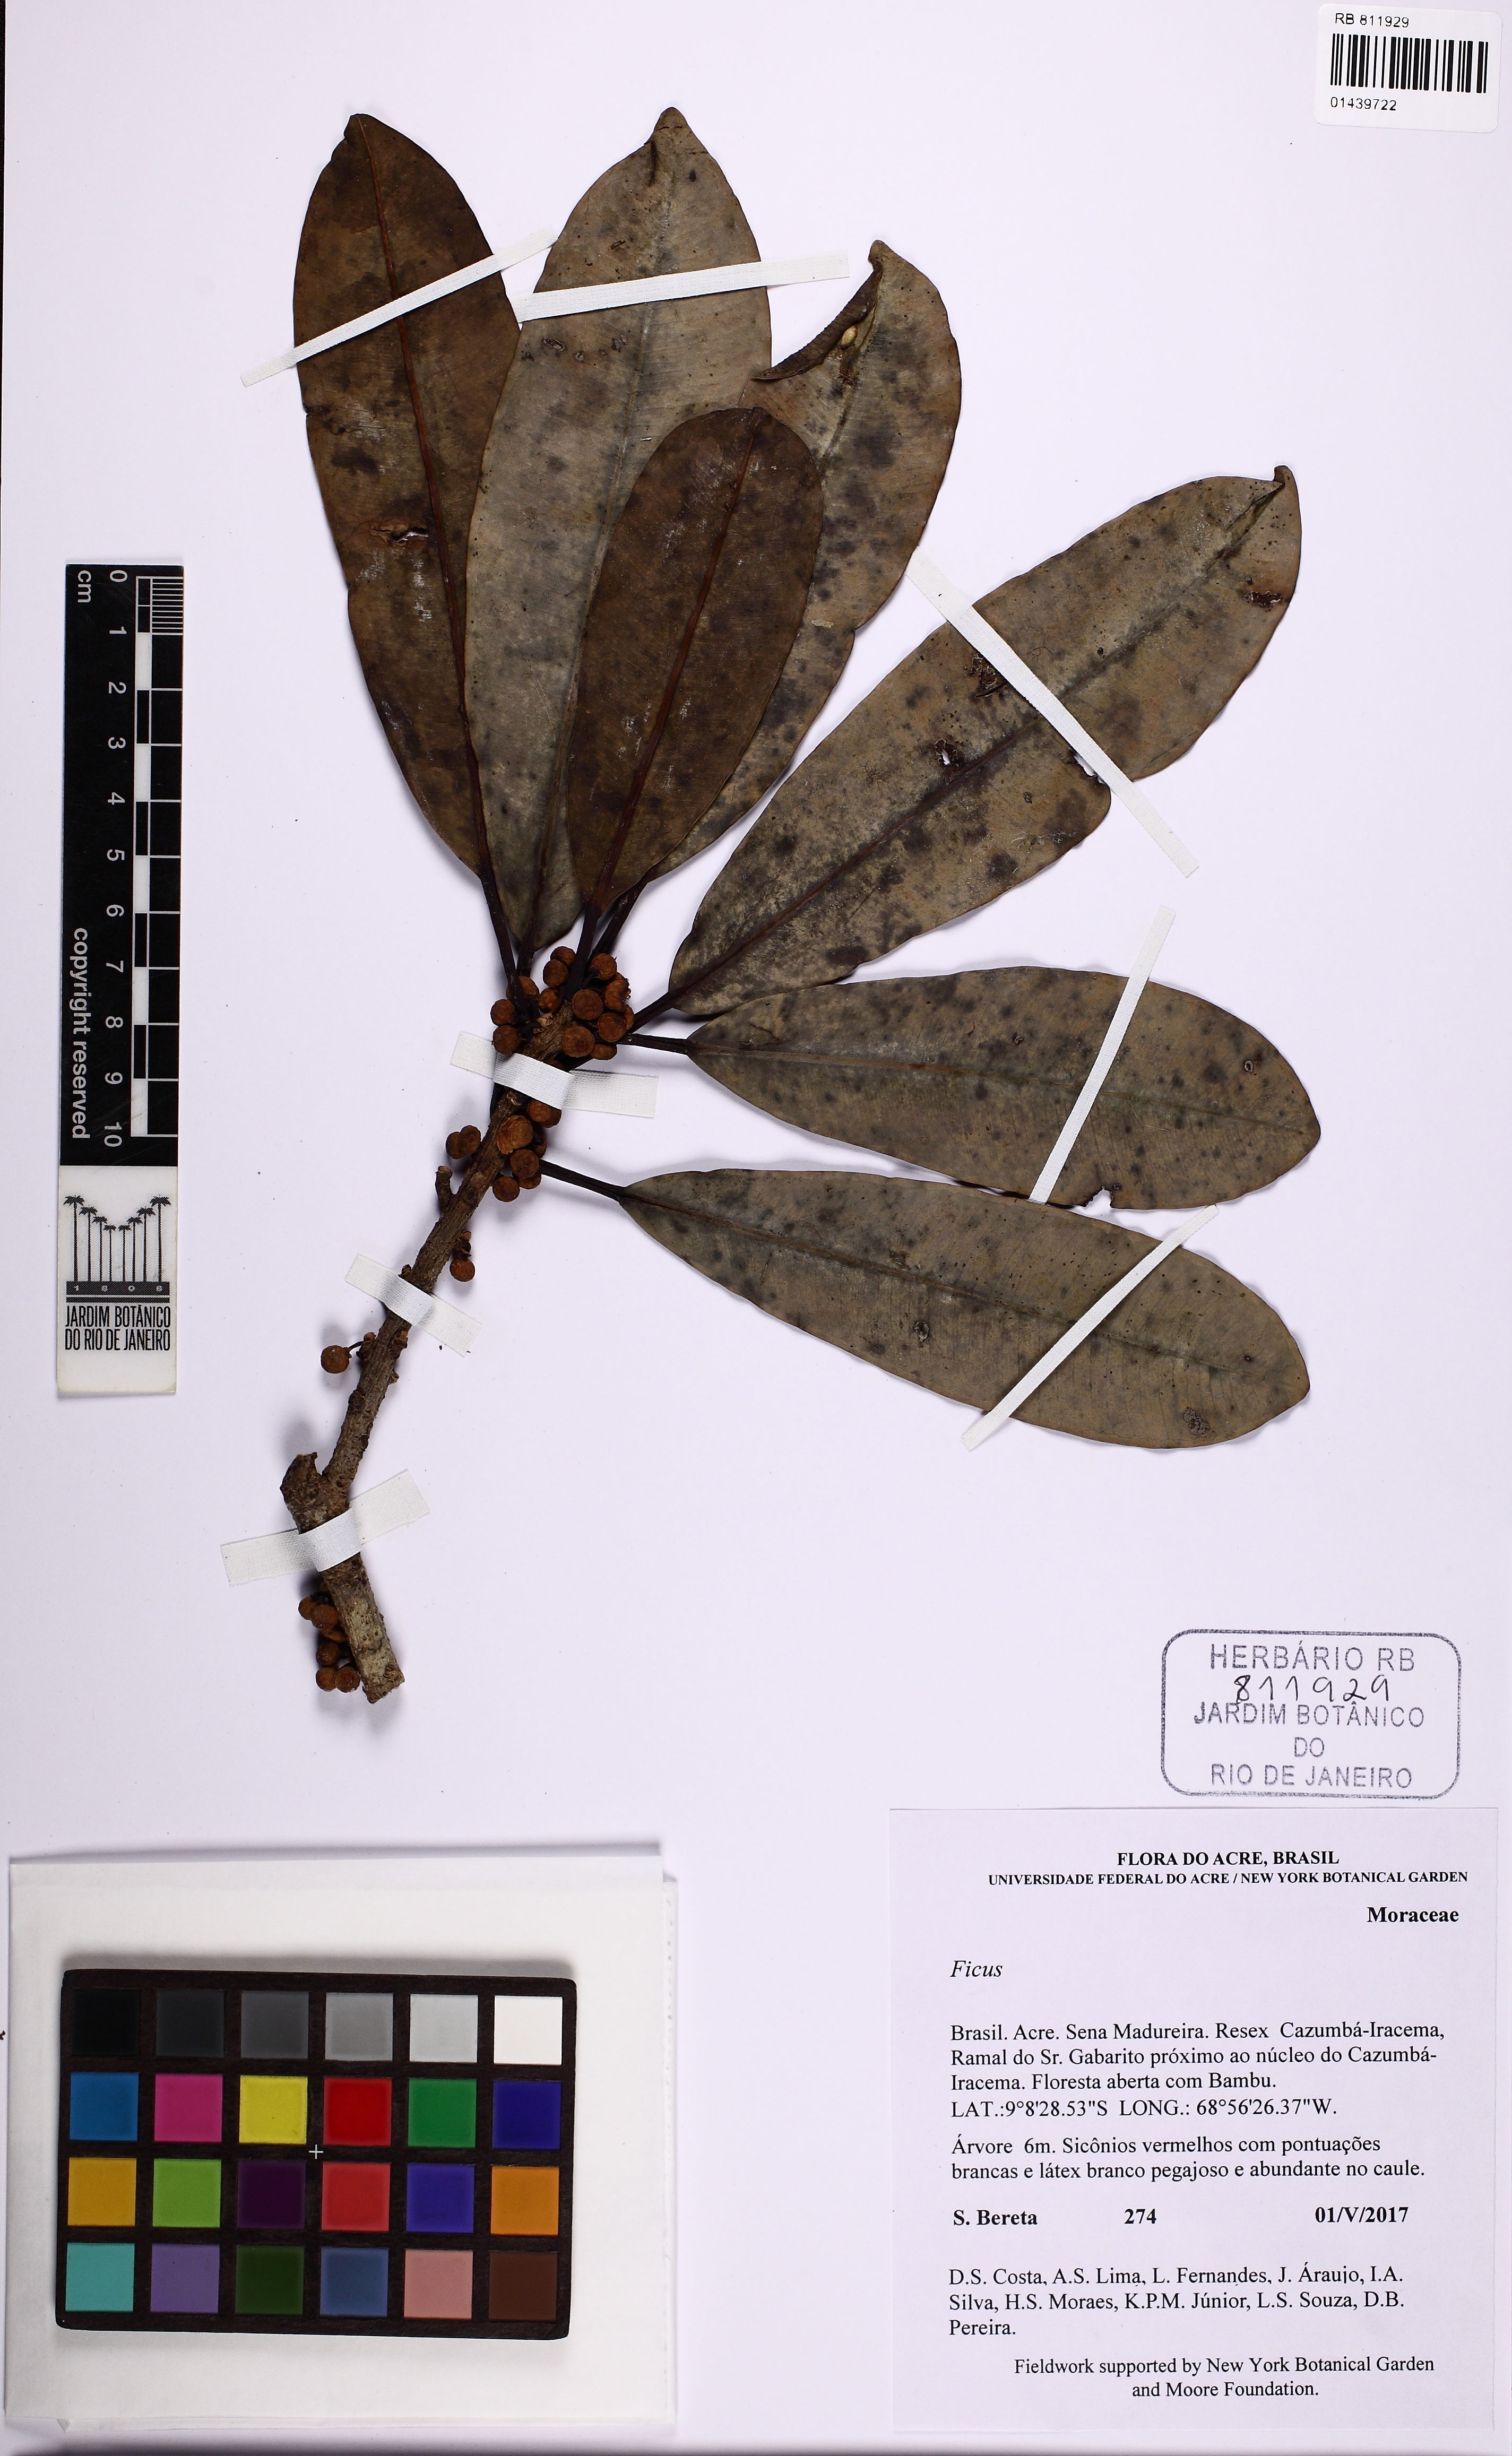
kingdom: Plantae
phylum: Tracheophyta
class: Magnoliopsida
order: Rosales
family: Moraceae
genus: Ficus
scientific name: Ficus sphenophylla
